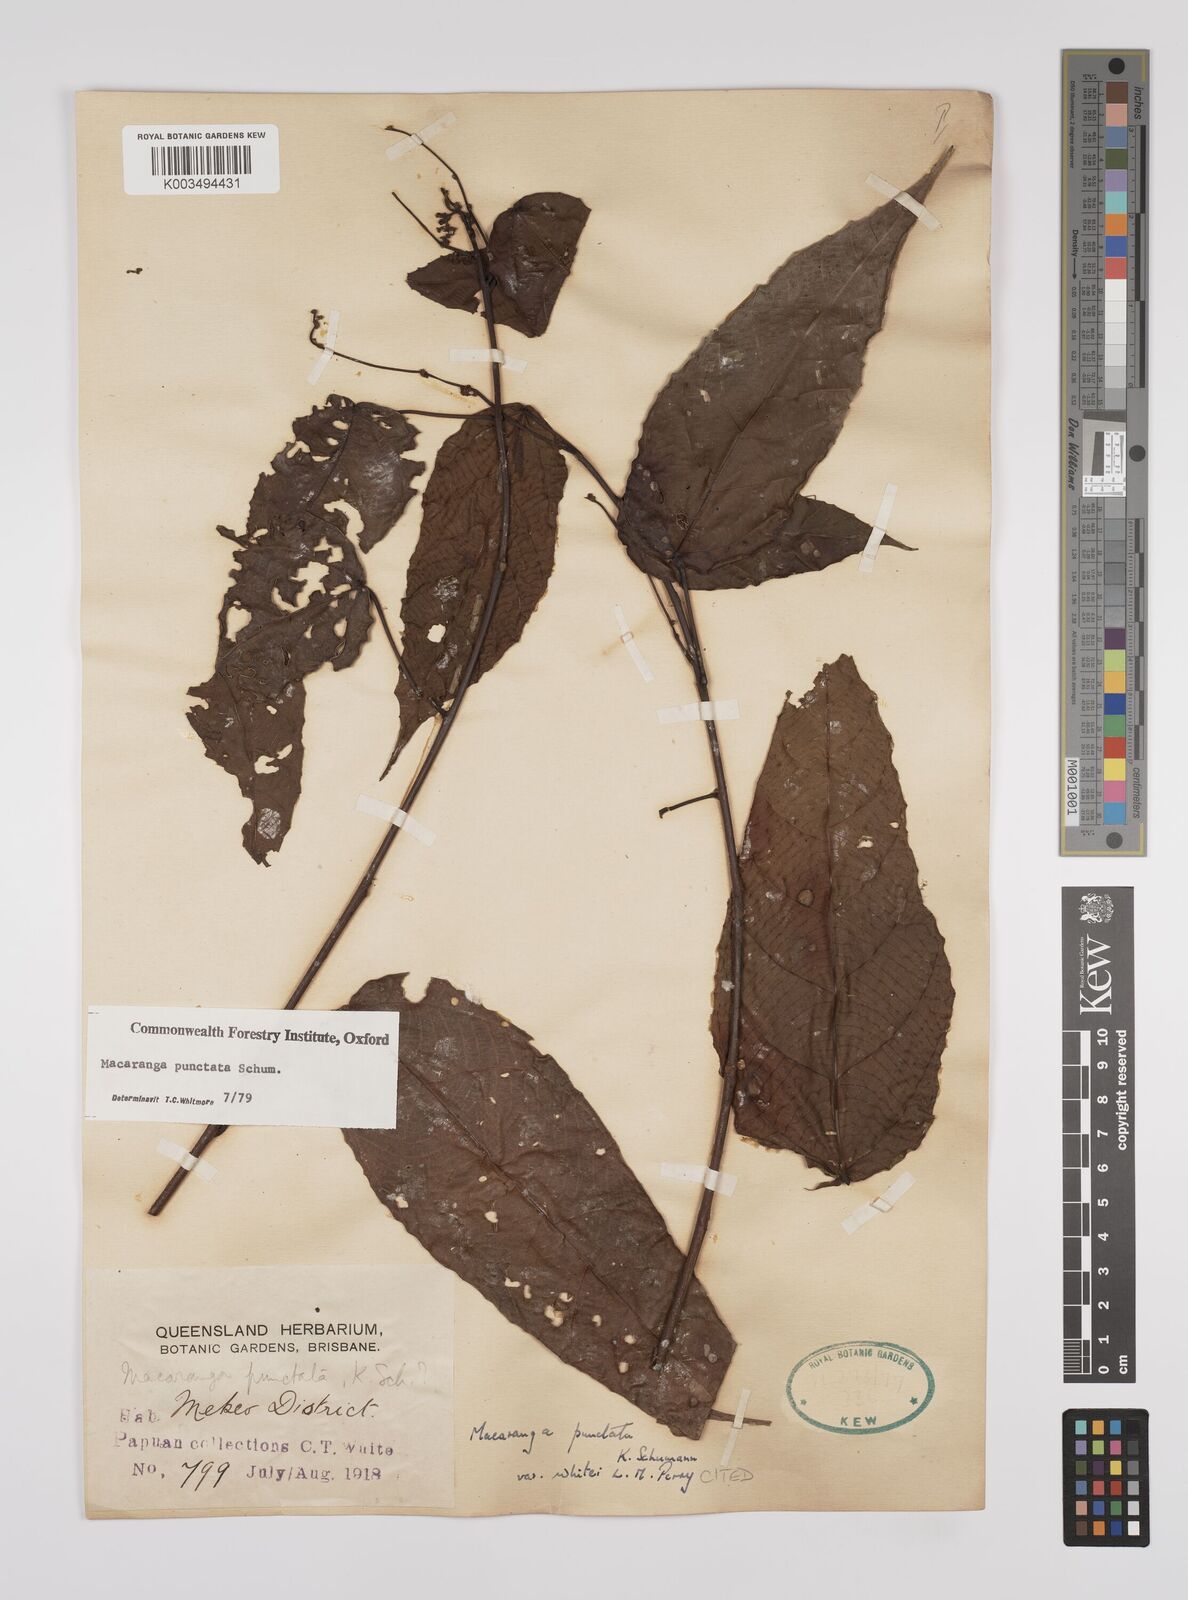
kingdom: Plantae
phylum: Tracheophyta
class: Magnoliopsida
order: Malpighiales
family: Euphorbiaceae
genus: Macaranga
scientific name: Macaranga punctata
